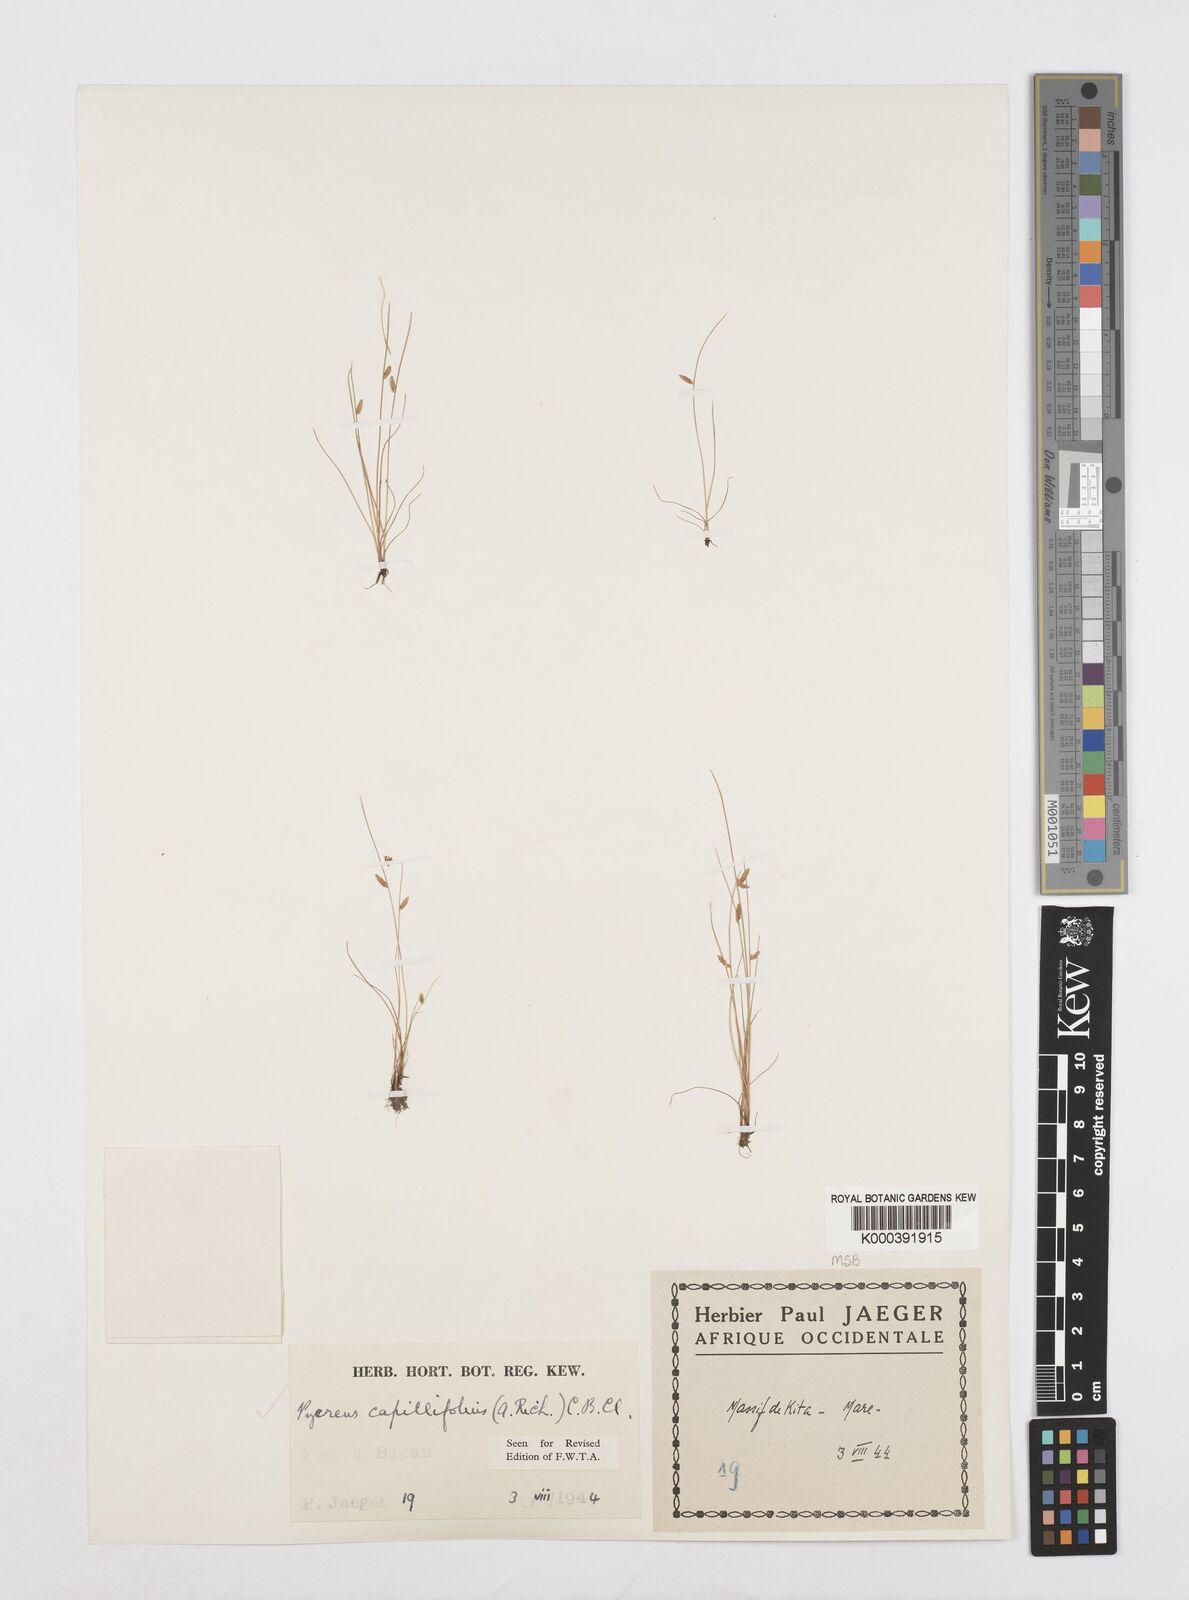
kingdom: Plantae
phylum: Tracheophyta
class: Liliopsida
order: Poales
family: Cyperaceae
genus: Cyperus
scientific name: Cyperus capillifolius
